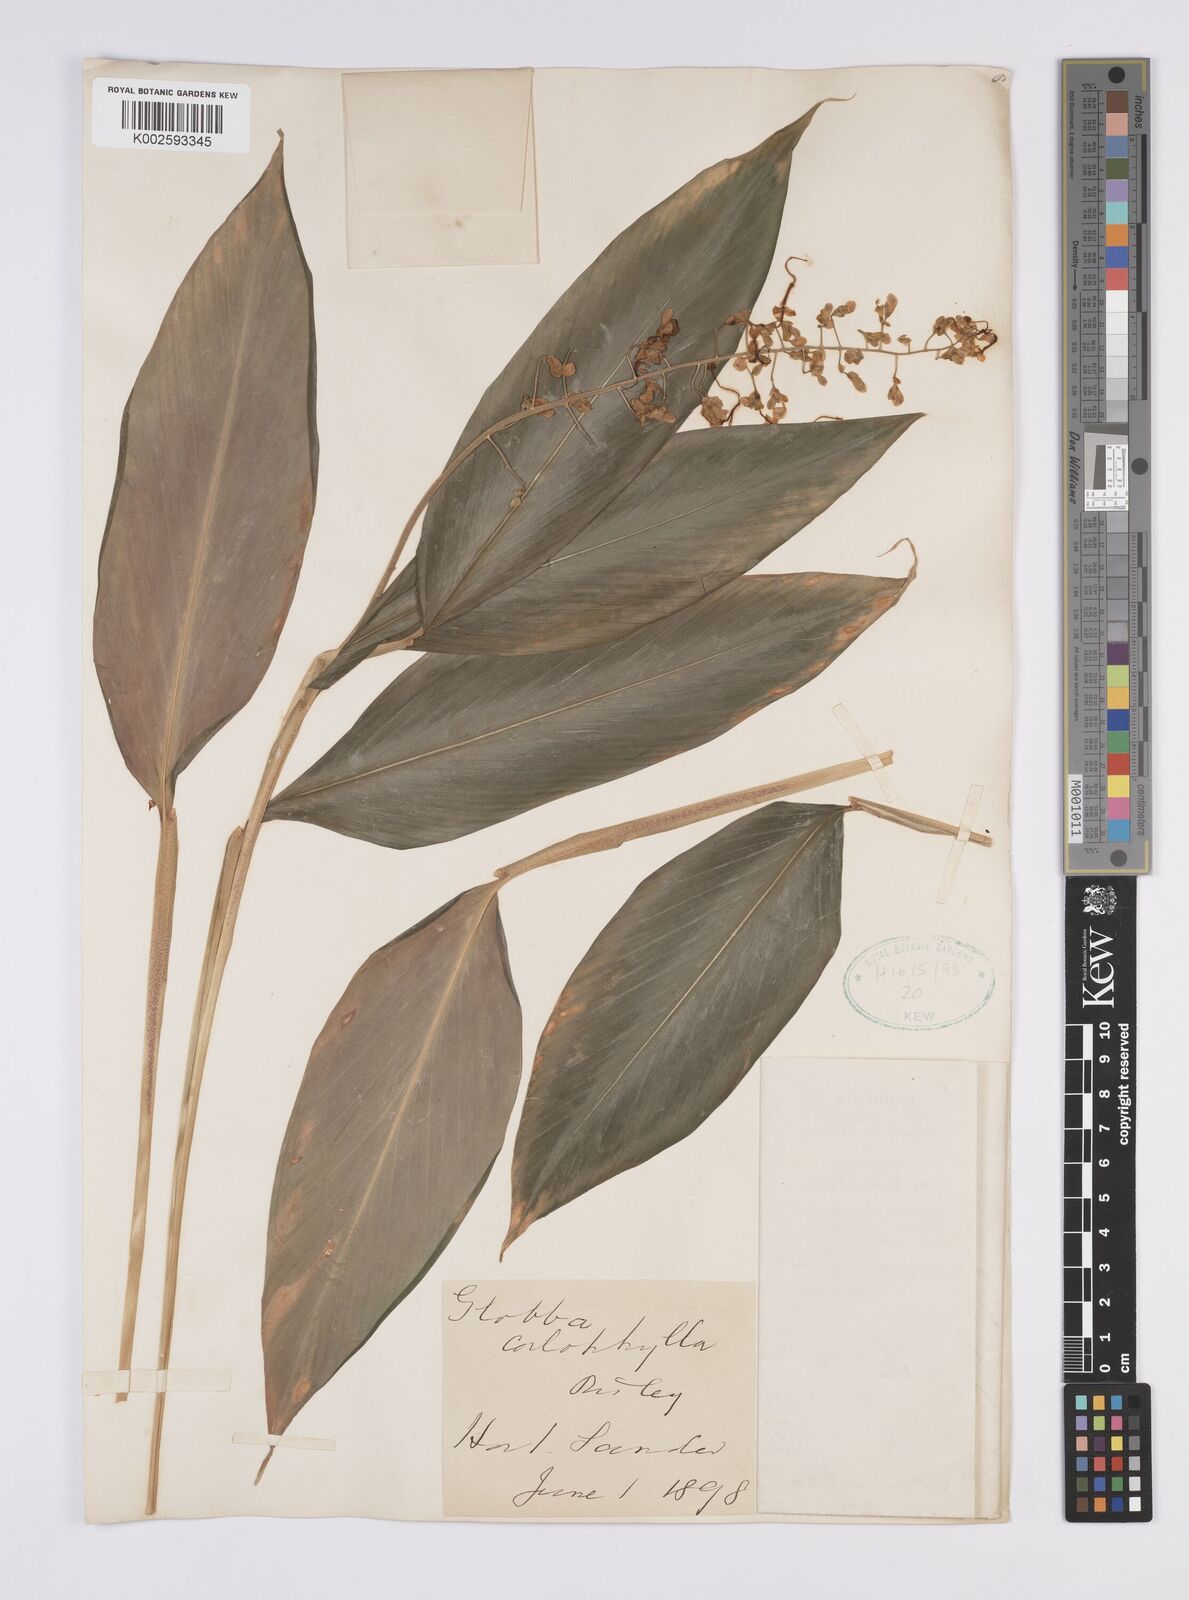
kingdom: Plantae
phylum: Tracheophyta
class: Liliopsida
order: Zingiberales
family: Zingiberaceae
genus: Globba
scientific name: Globba pendula
